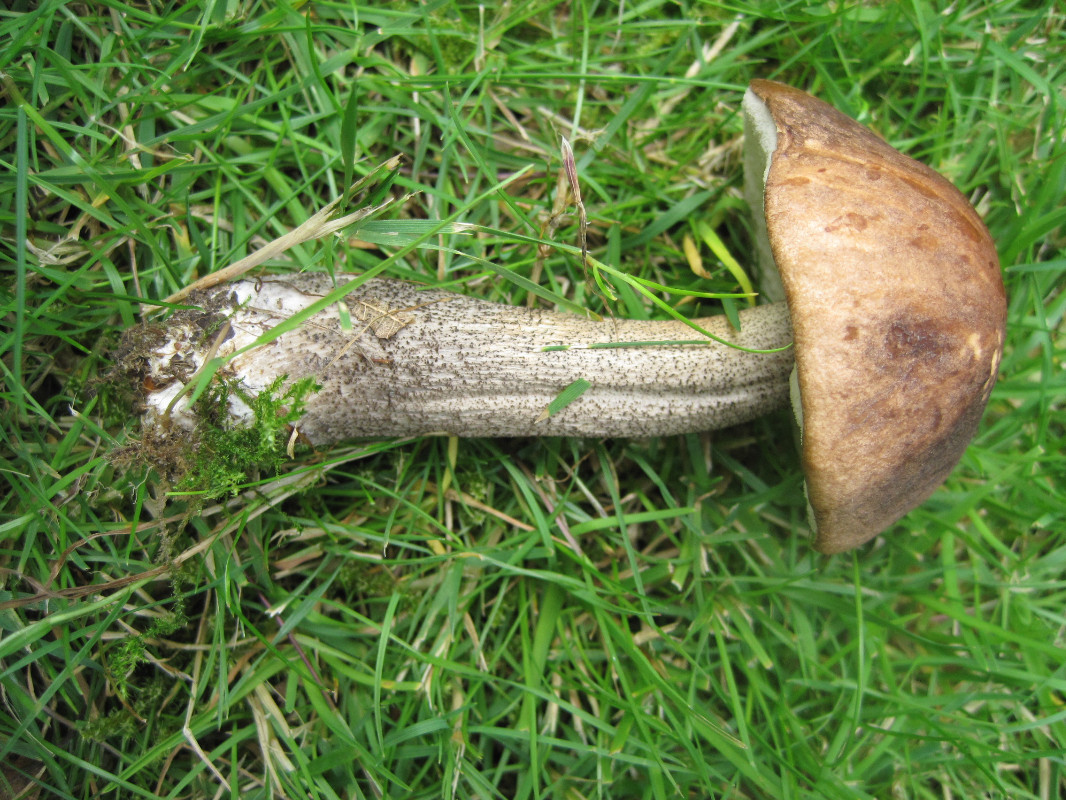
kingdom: Fungi
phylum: Basidiomycota
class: Agaricomycetes
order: Boletales
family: Boletaceae
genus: Leccinum
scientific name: Leccinum scabrum
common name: brun skælrørhat
